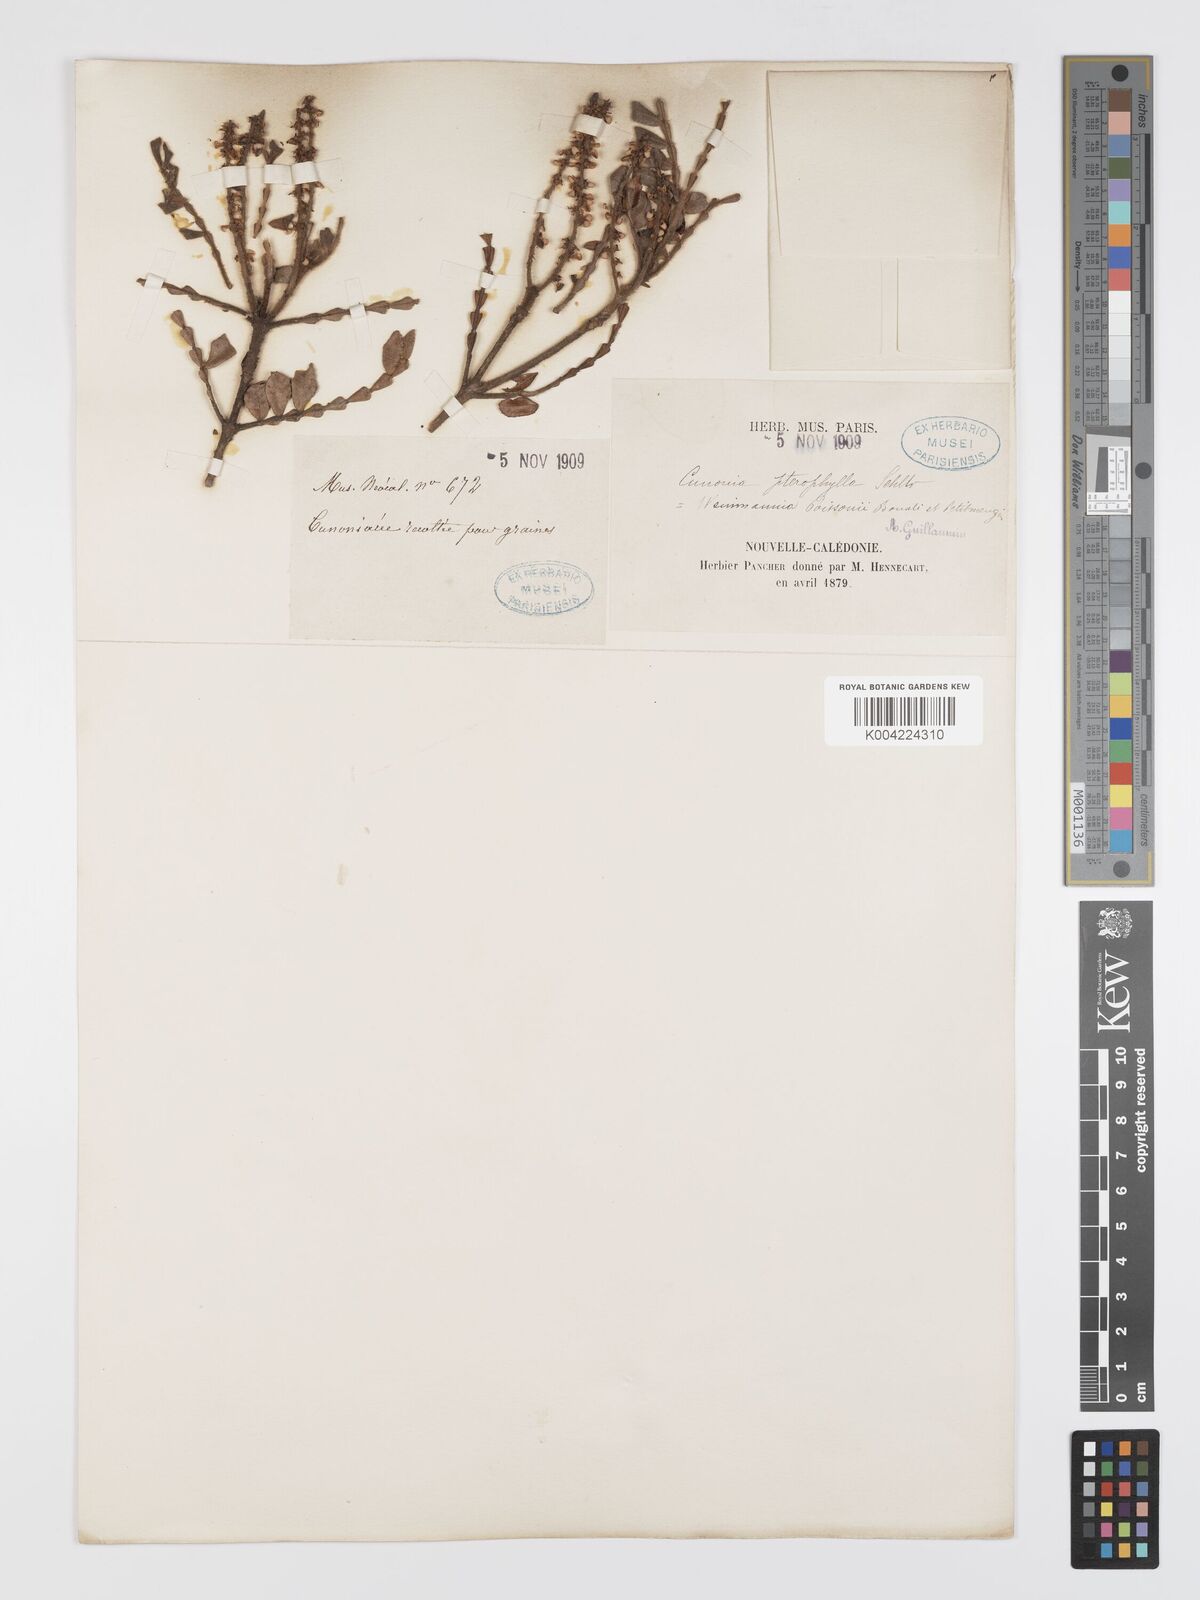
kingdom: Plantae
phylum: Tracheophyta
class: Magnoliopsida
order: Oxalidales
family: Cunoniaceae
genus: Cunonia
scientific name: Cunonia pterophylla
